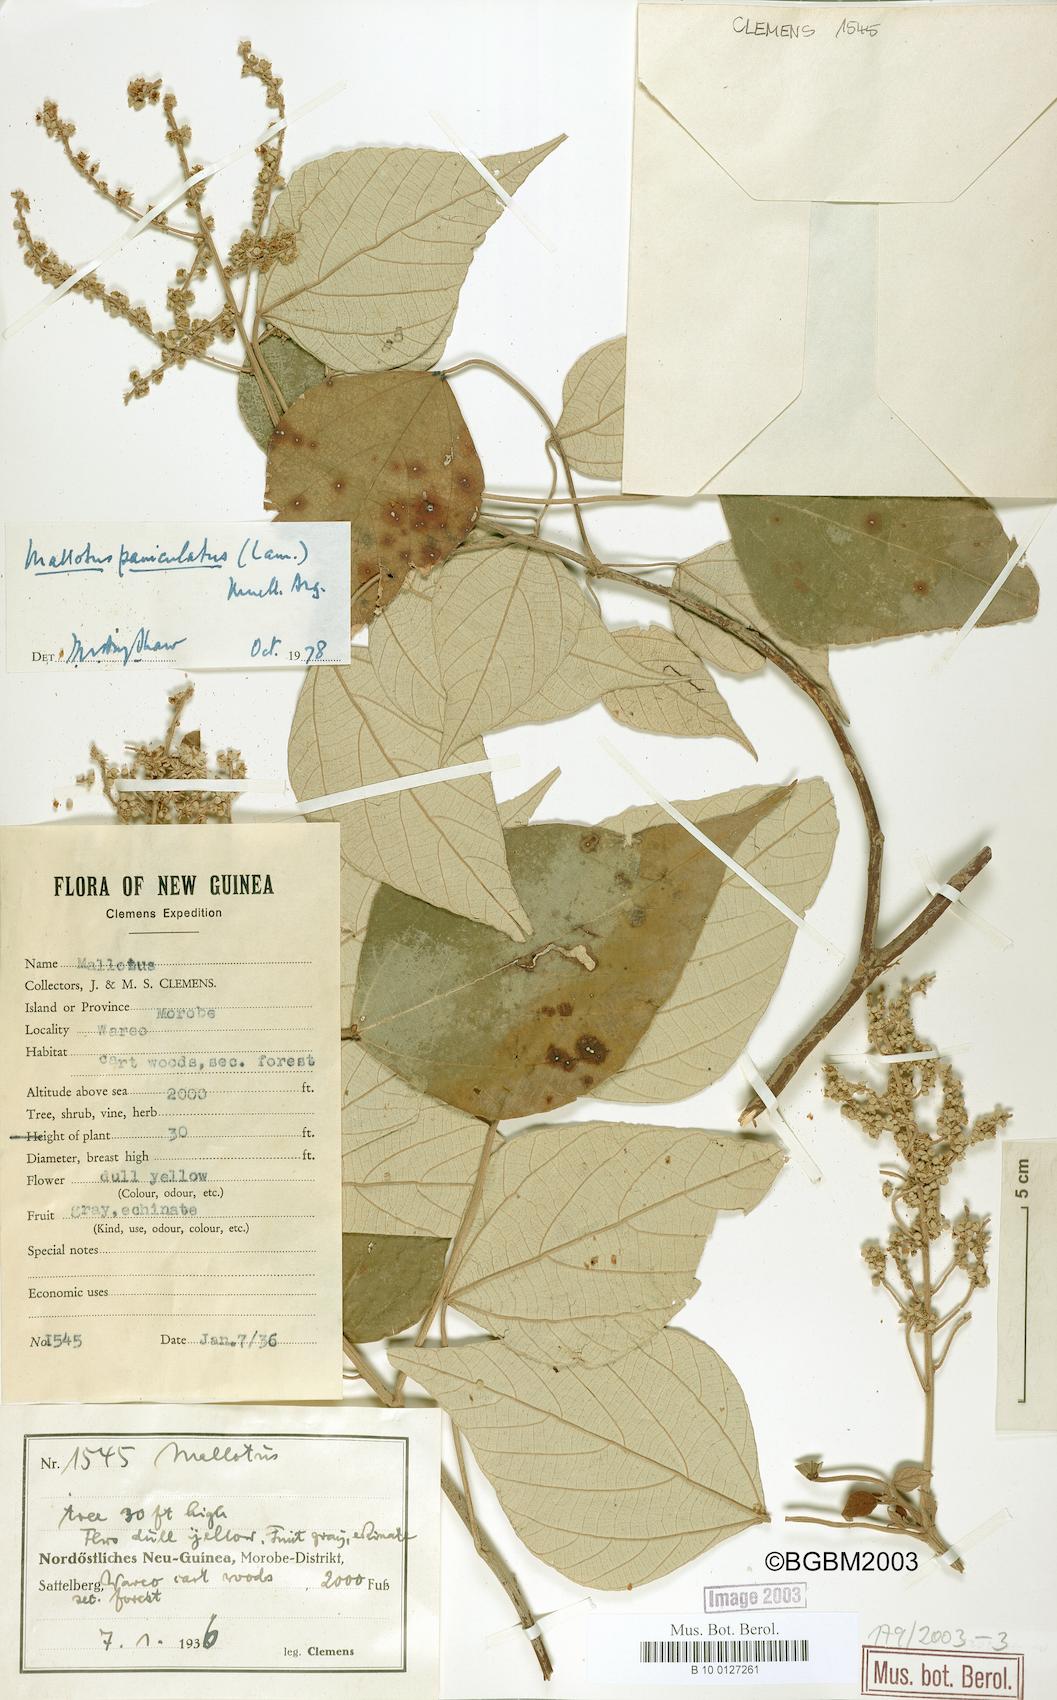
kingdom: Plantae
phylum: Tracheophyta
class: Magnoliopsida
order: Malpighiales
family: Euphorbiaceae
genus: Mallotus
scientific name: Mallotus paniculatus
